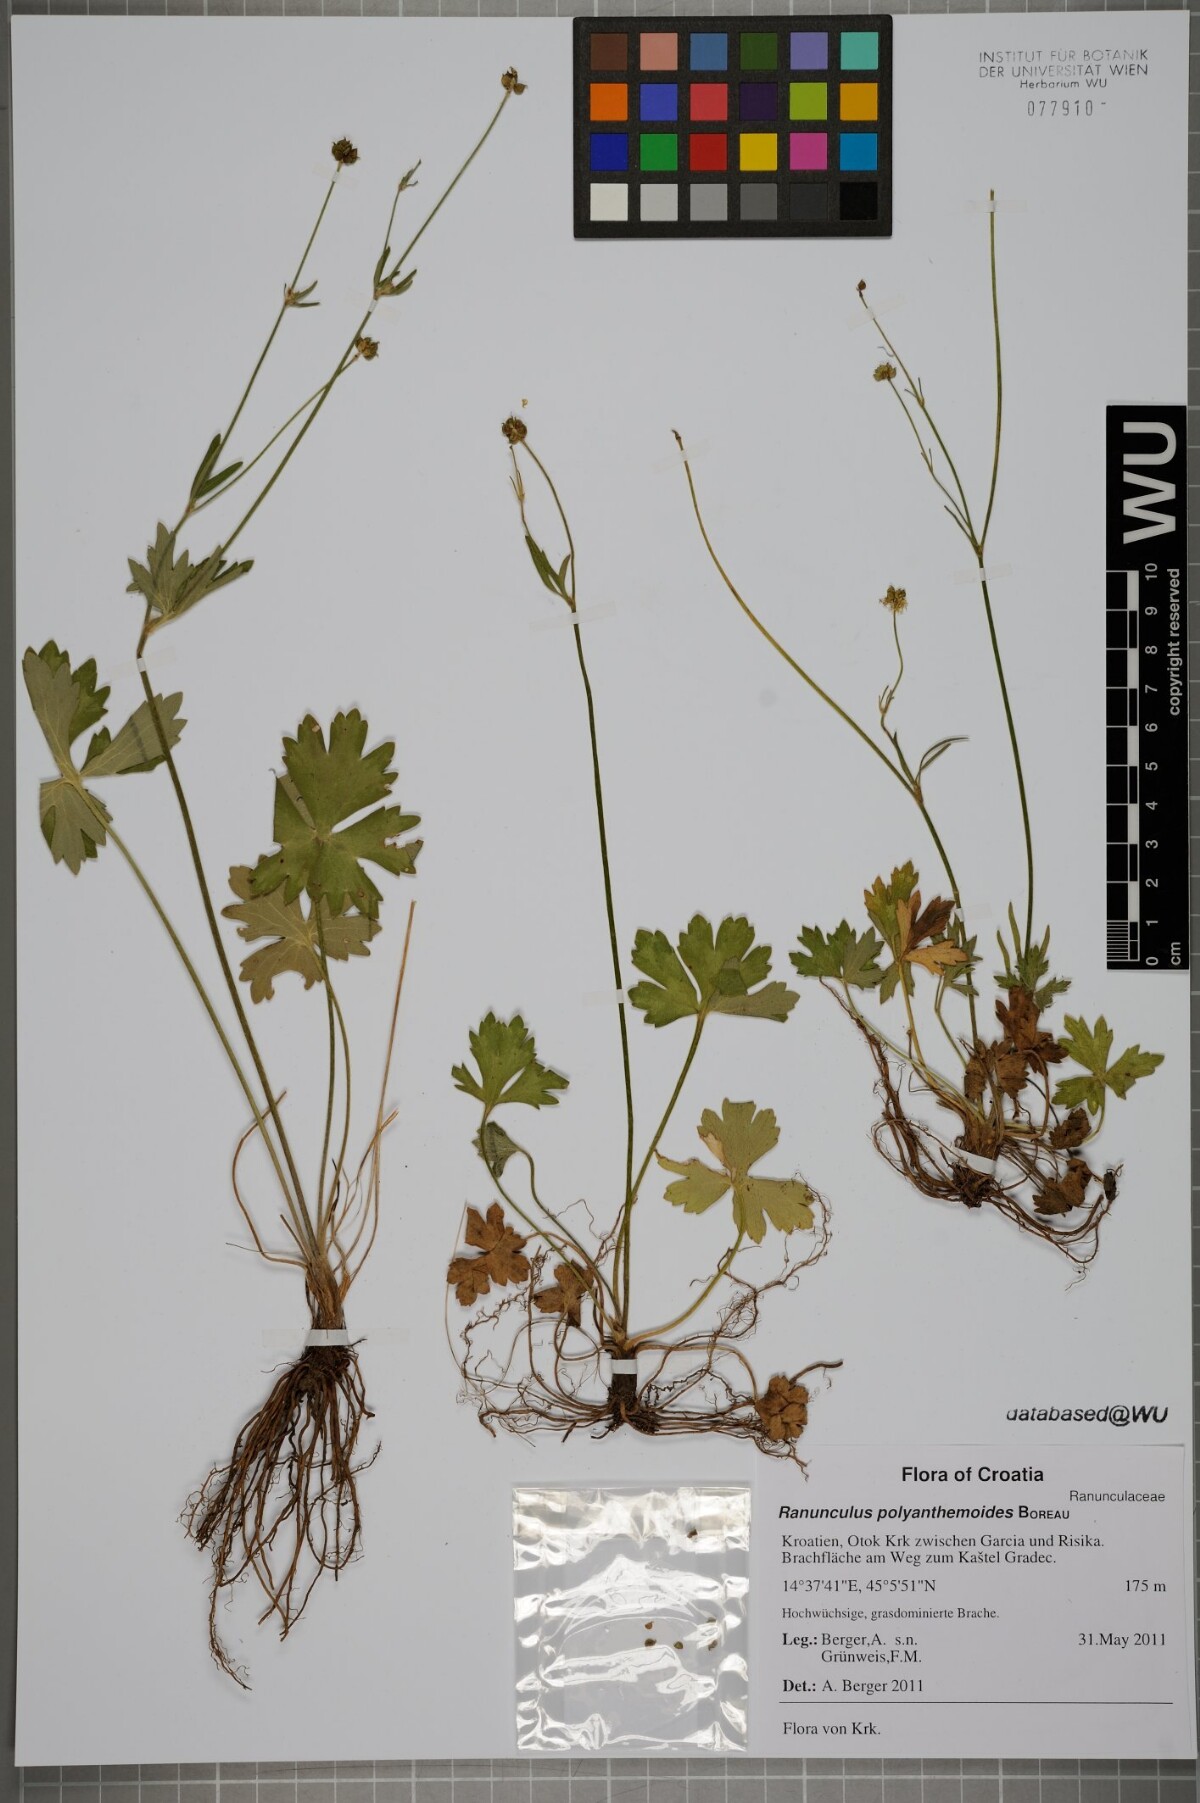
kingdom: Plantae
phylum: Tracheophyta
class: Magnoliopsida
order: Ranunculales
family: Ranunculaceae
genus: Ranunculus
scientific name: Ranunculus polyanthemos
